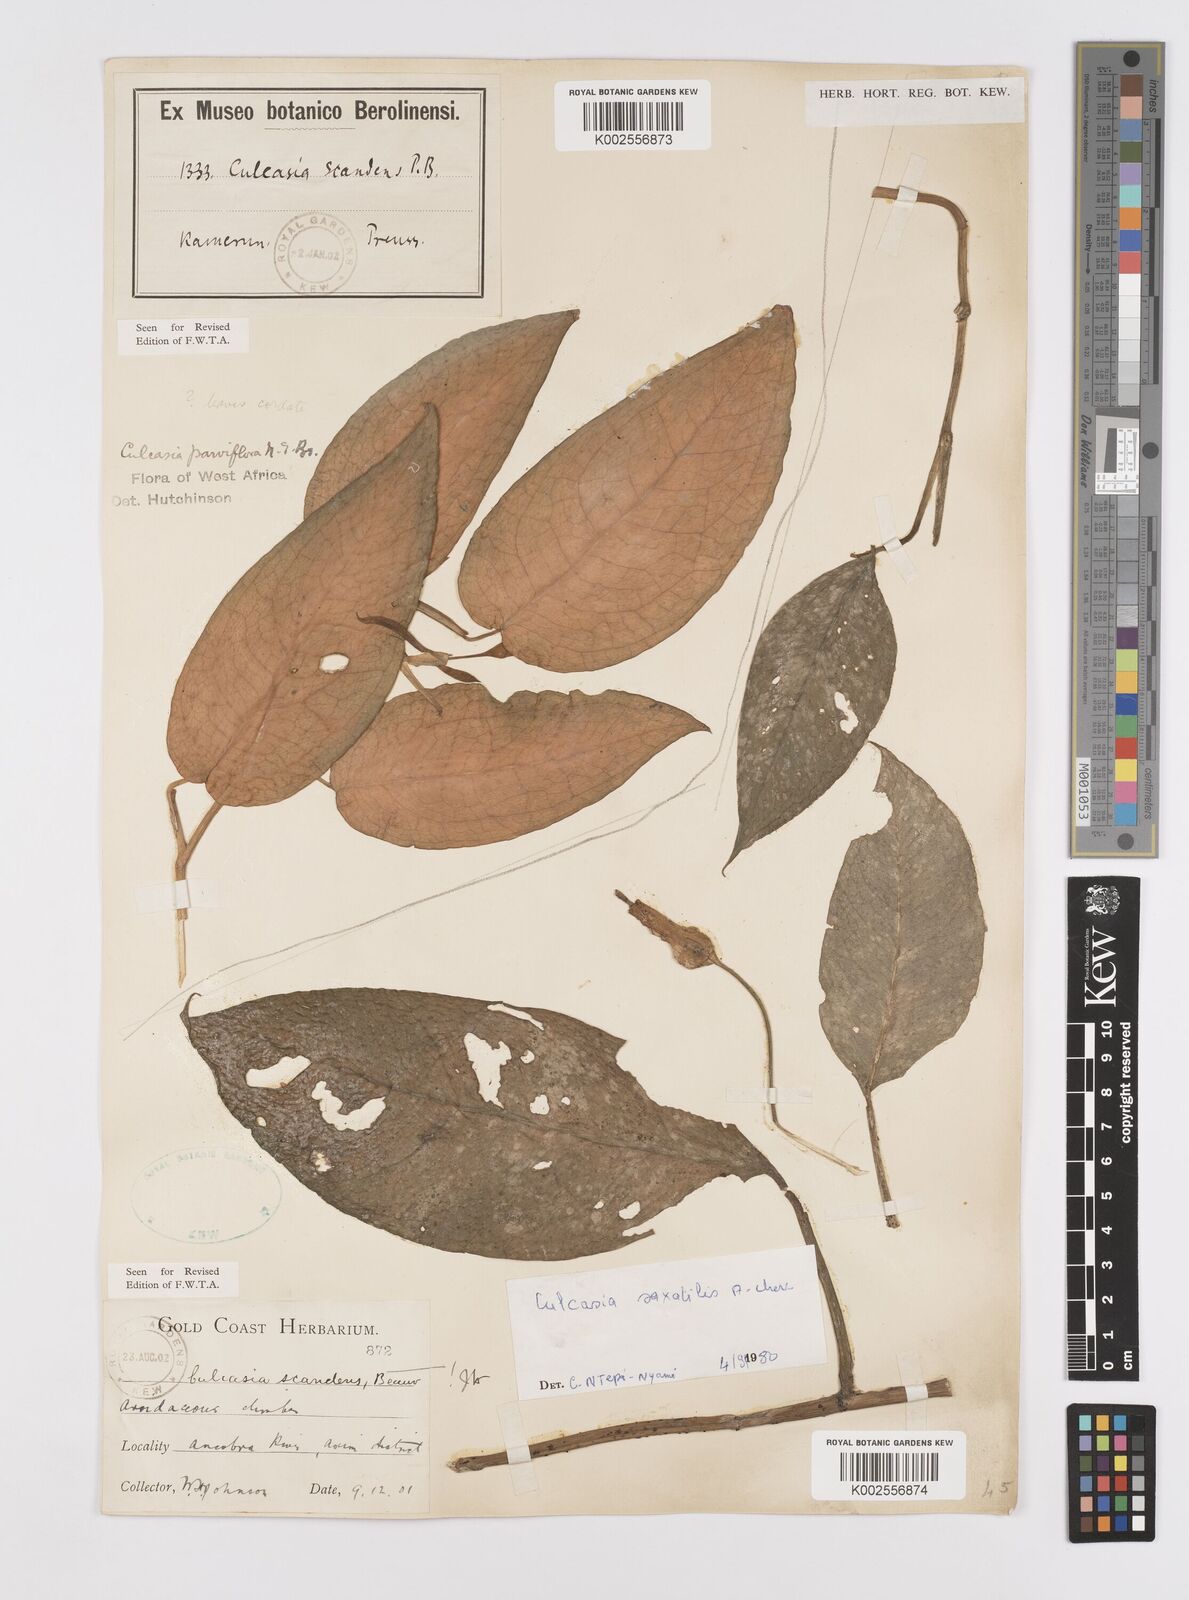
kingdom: Plantae
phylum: Tracheophyta
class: Liliopsida
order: Alismatales
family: Araceae
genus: Culcasia
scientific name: Culcasia scandens
